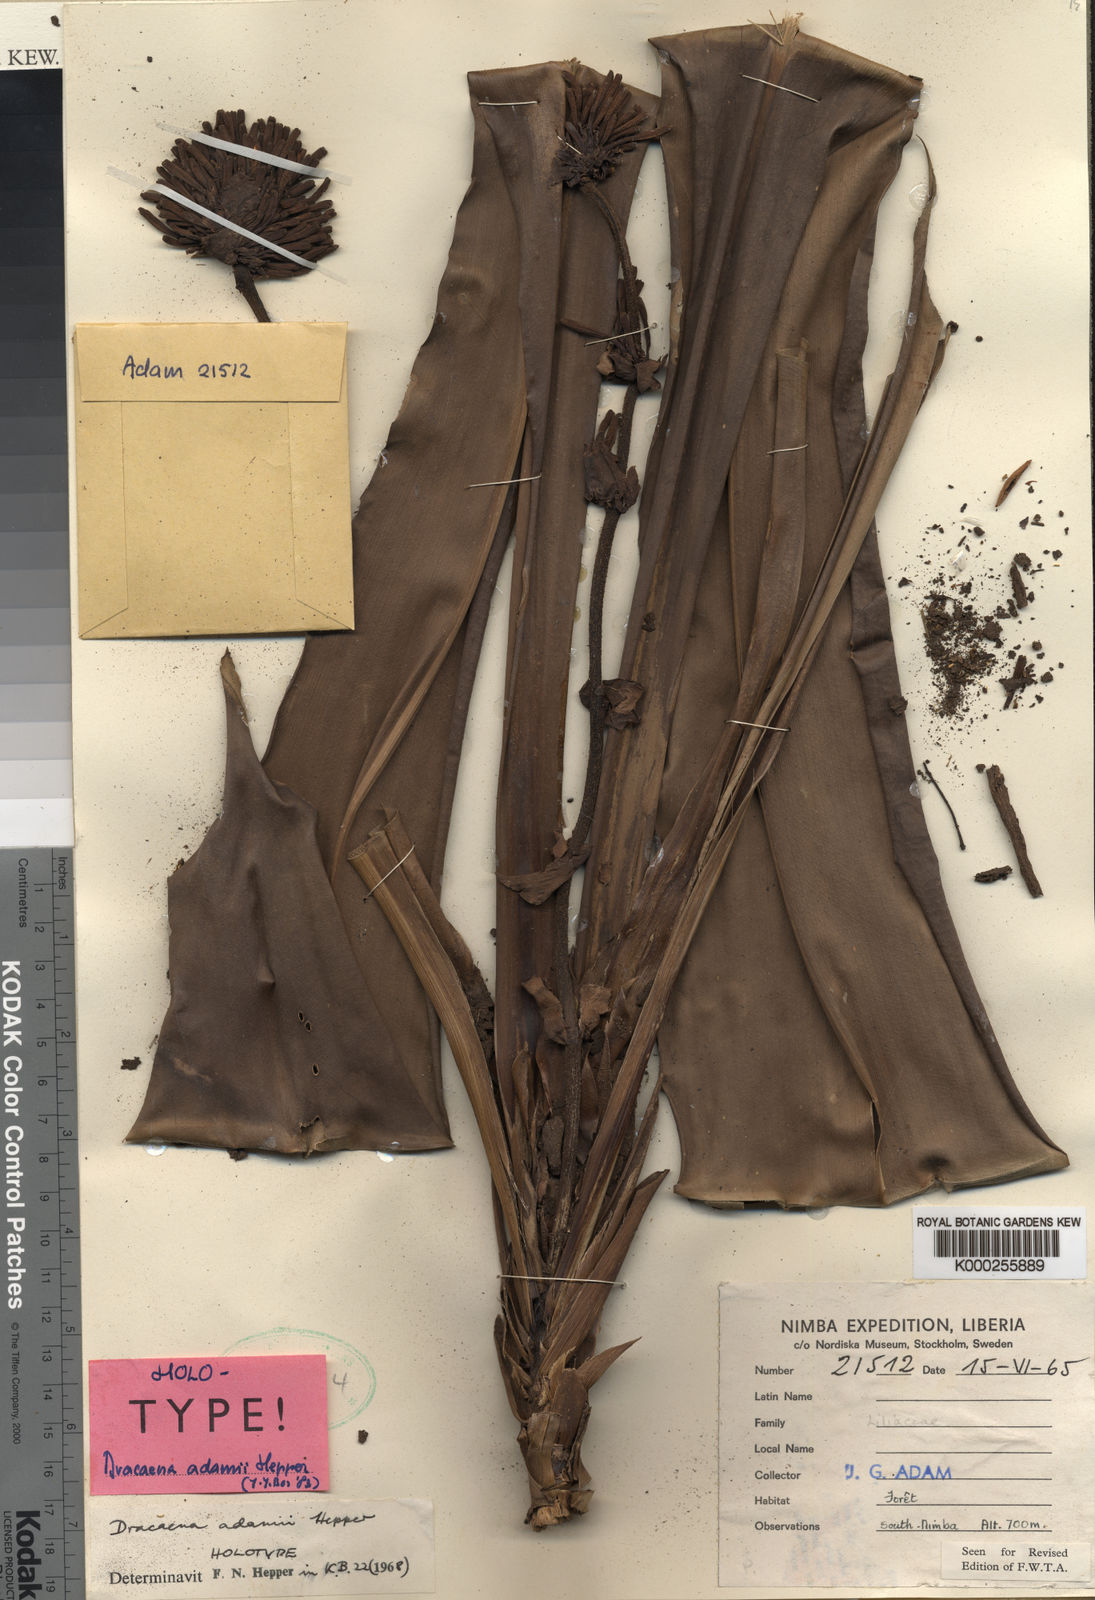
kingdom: Plantae
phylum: Tracheophyta
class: Liliopsida
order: Asparagales
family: Asparagaceae
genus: Dracaena
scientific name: Dracaena adamii
